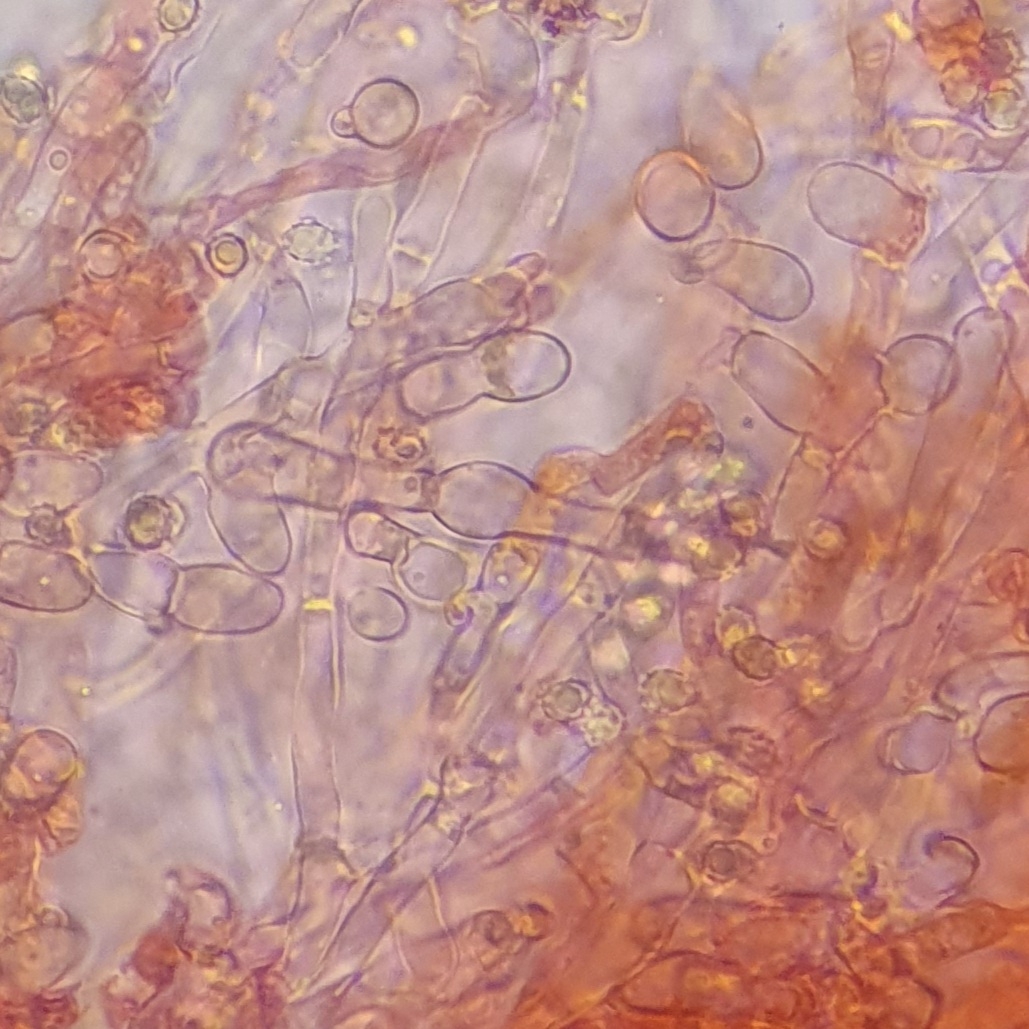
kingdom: Fungi
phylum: Basidiomycota
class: Agaricomycetes
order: Trechisporales
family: Sistotremataceae
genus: Trechispora
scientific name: Trechispora mollusca
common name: pyramide-vathinde
